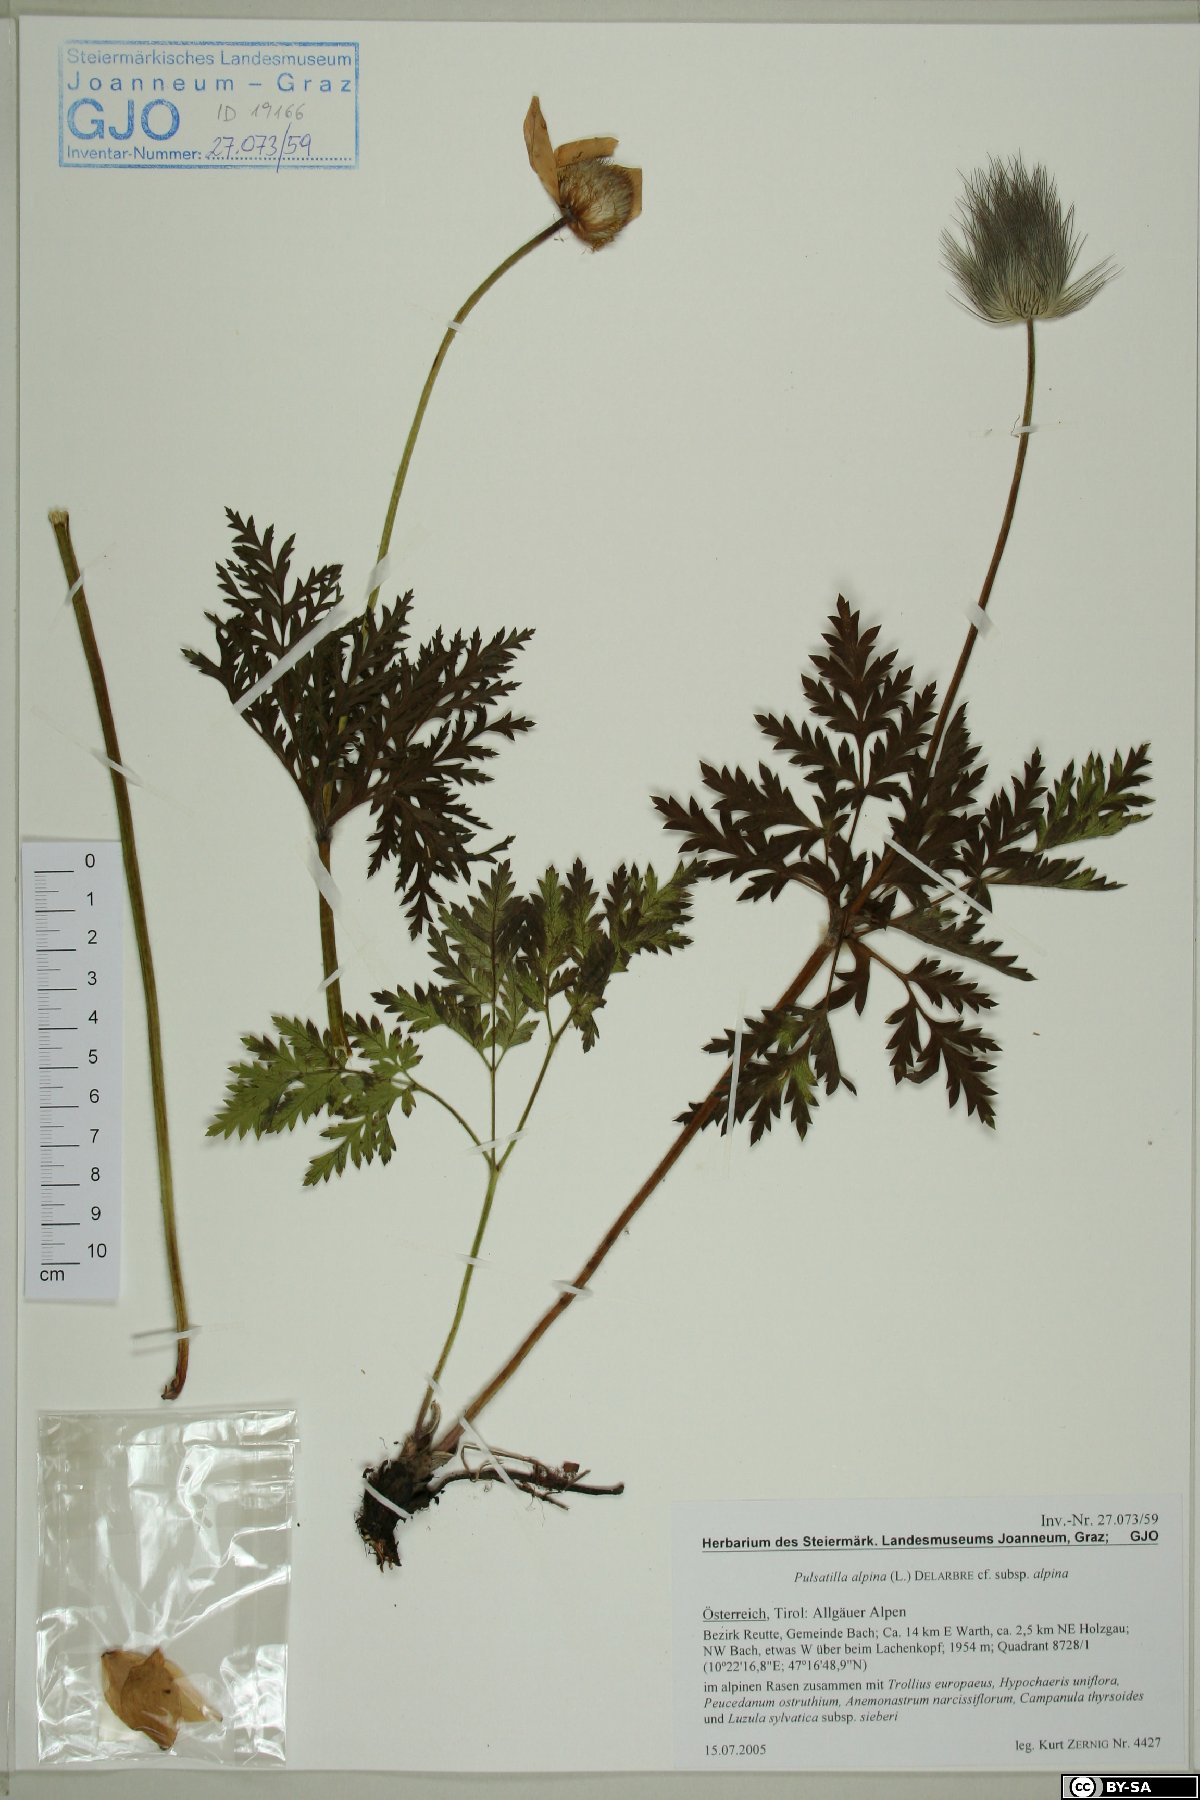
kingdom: Plantae
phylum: Tracheophyta
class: Magnoliopsida
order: Ranunculales
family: Ranunculaceae
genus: Pulsatilla
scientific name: Pulsatilla alpina
